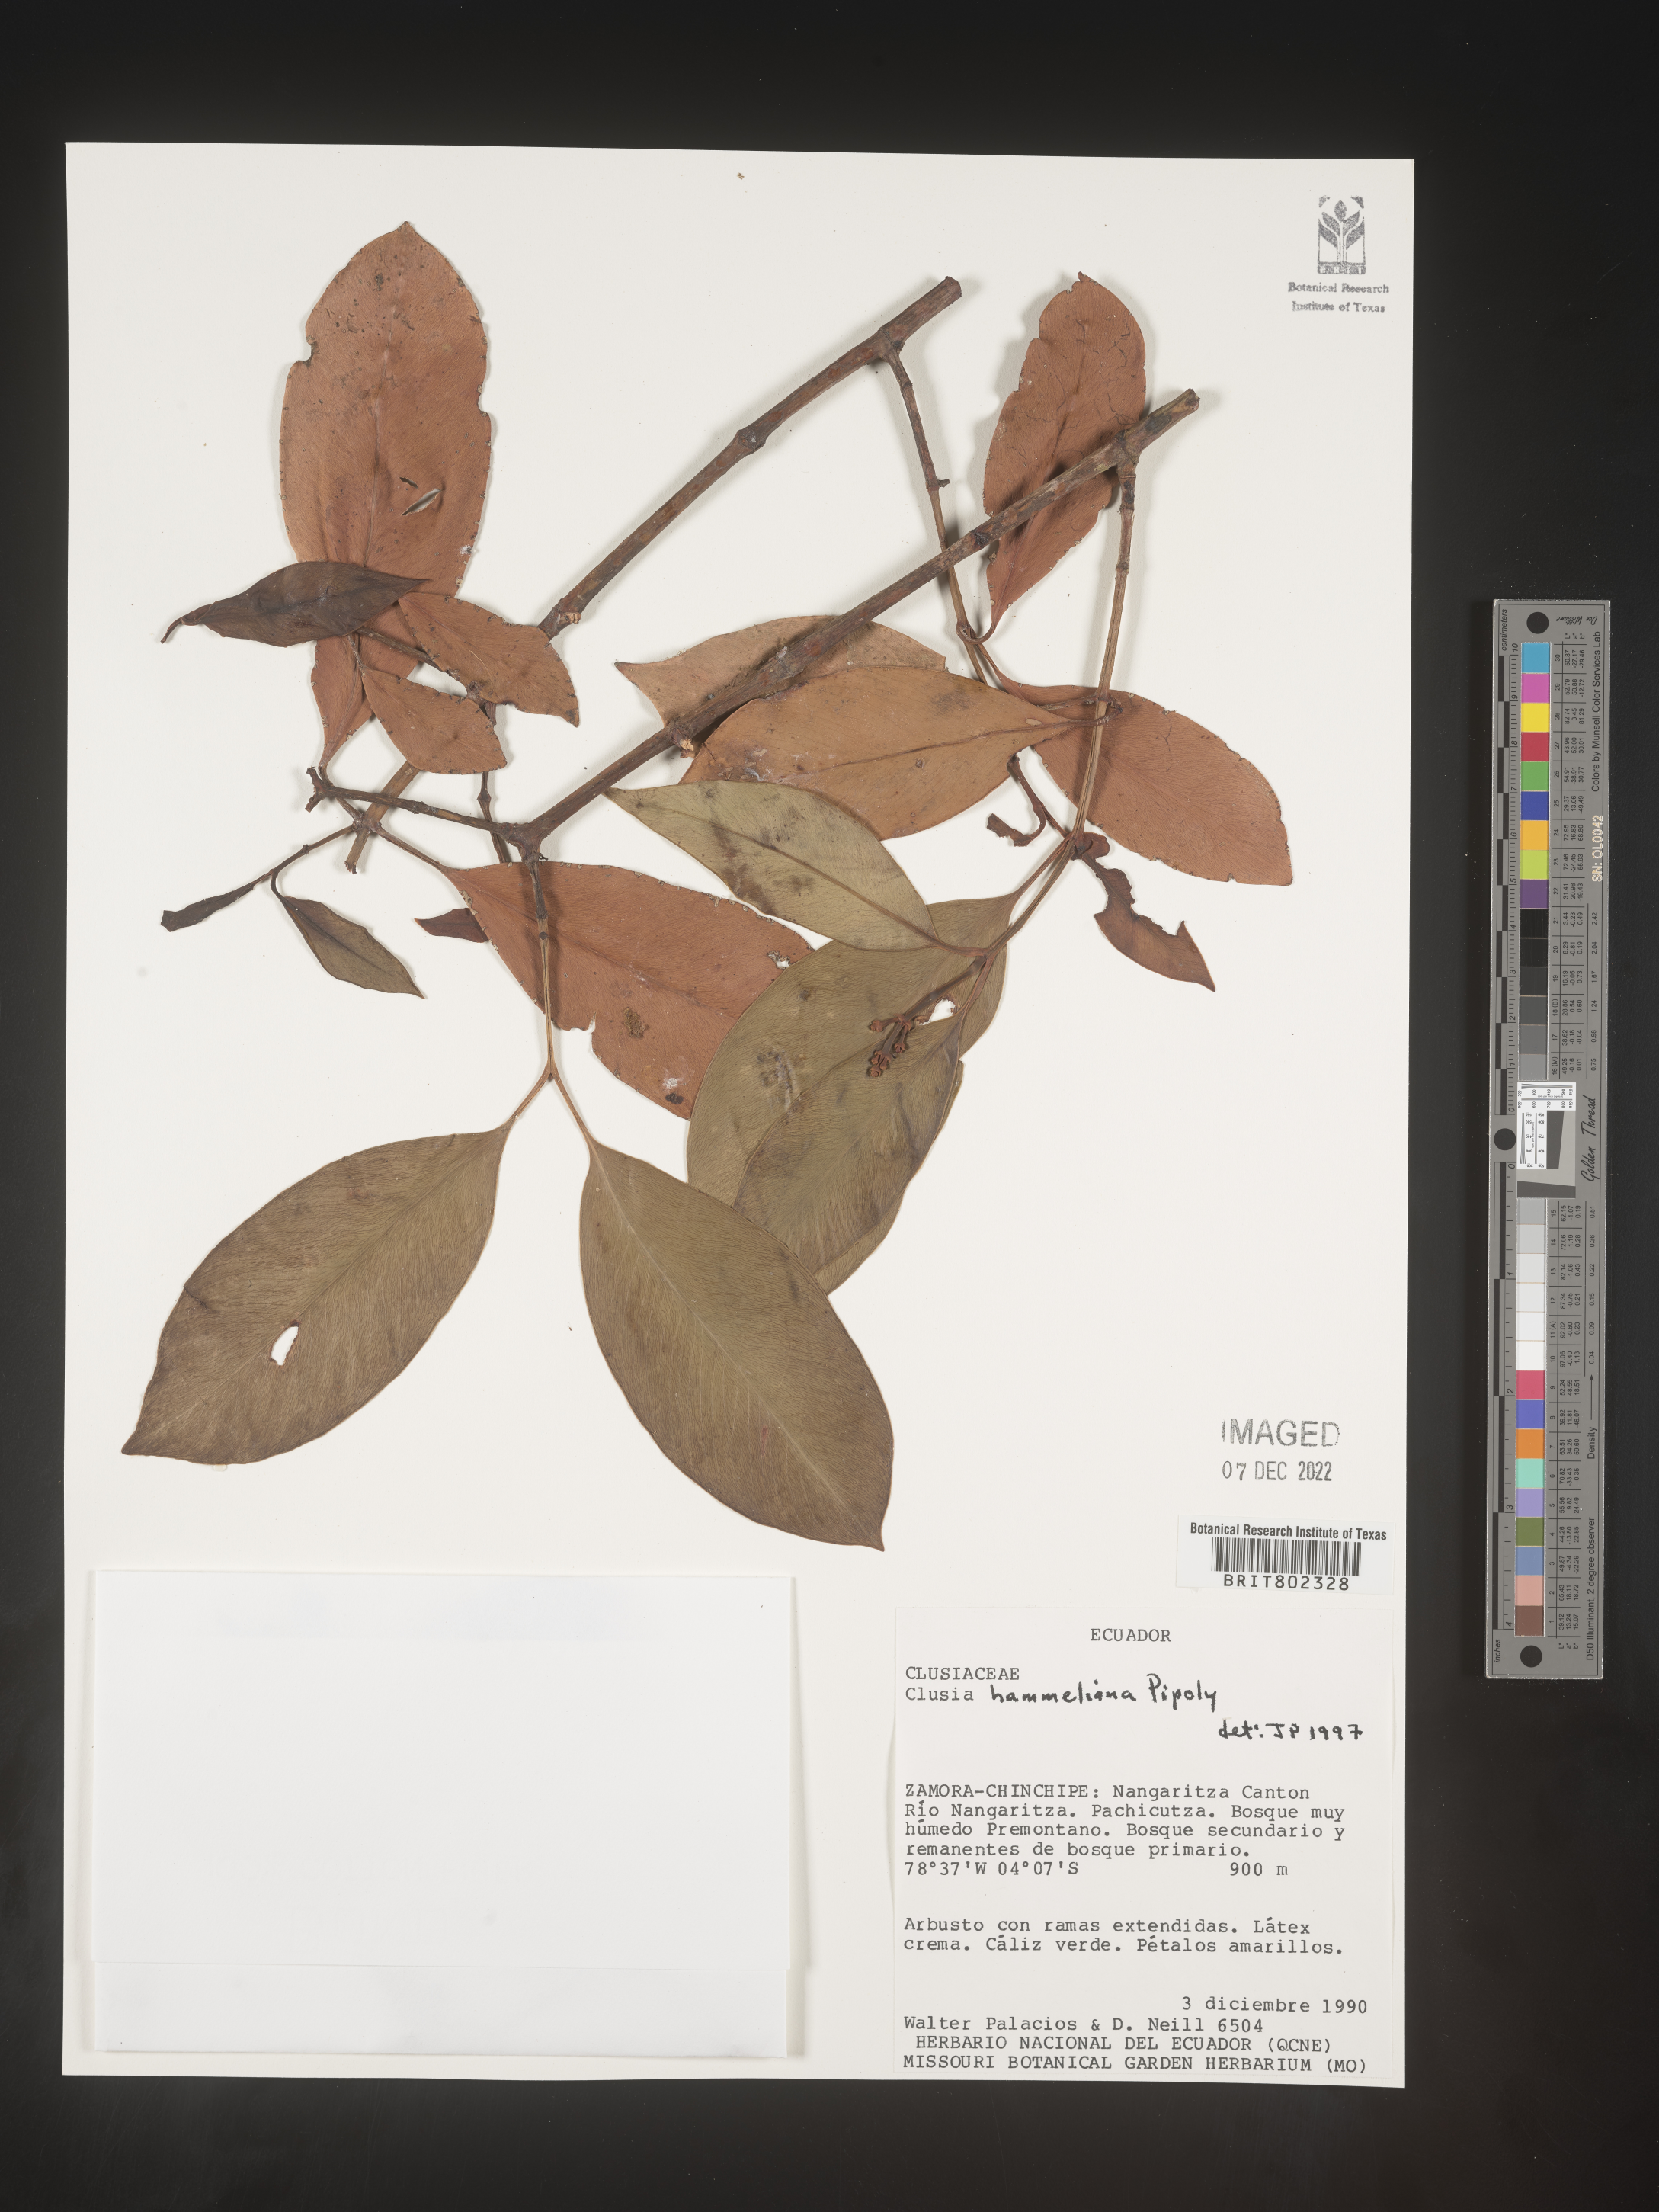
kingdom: Plantae
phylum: Tracheophyta
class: Magnoliopsida
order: Malpighiales
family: Clusiaceae
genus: Clusia
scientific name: Clusia hammeliana
